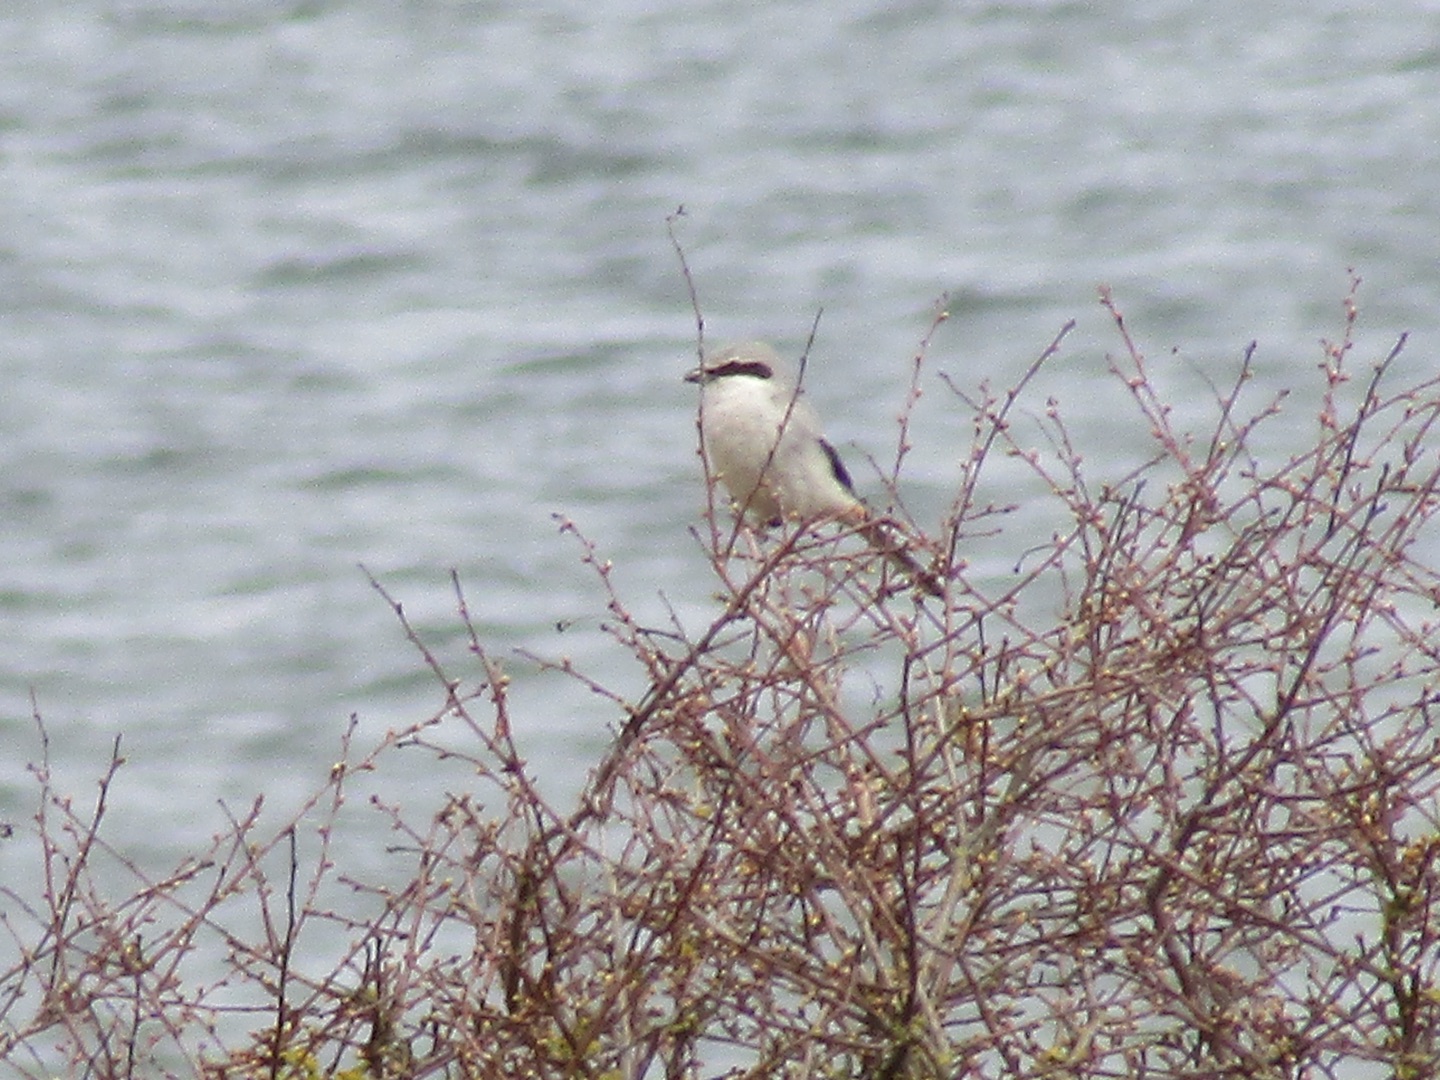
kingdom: Animalia
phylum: Chordata
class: Aves
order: Passeriformes
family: Laniidae
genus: Lanius
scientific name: Lanius excubitor
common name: Stor tornskade
